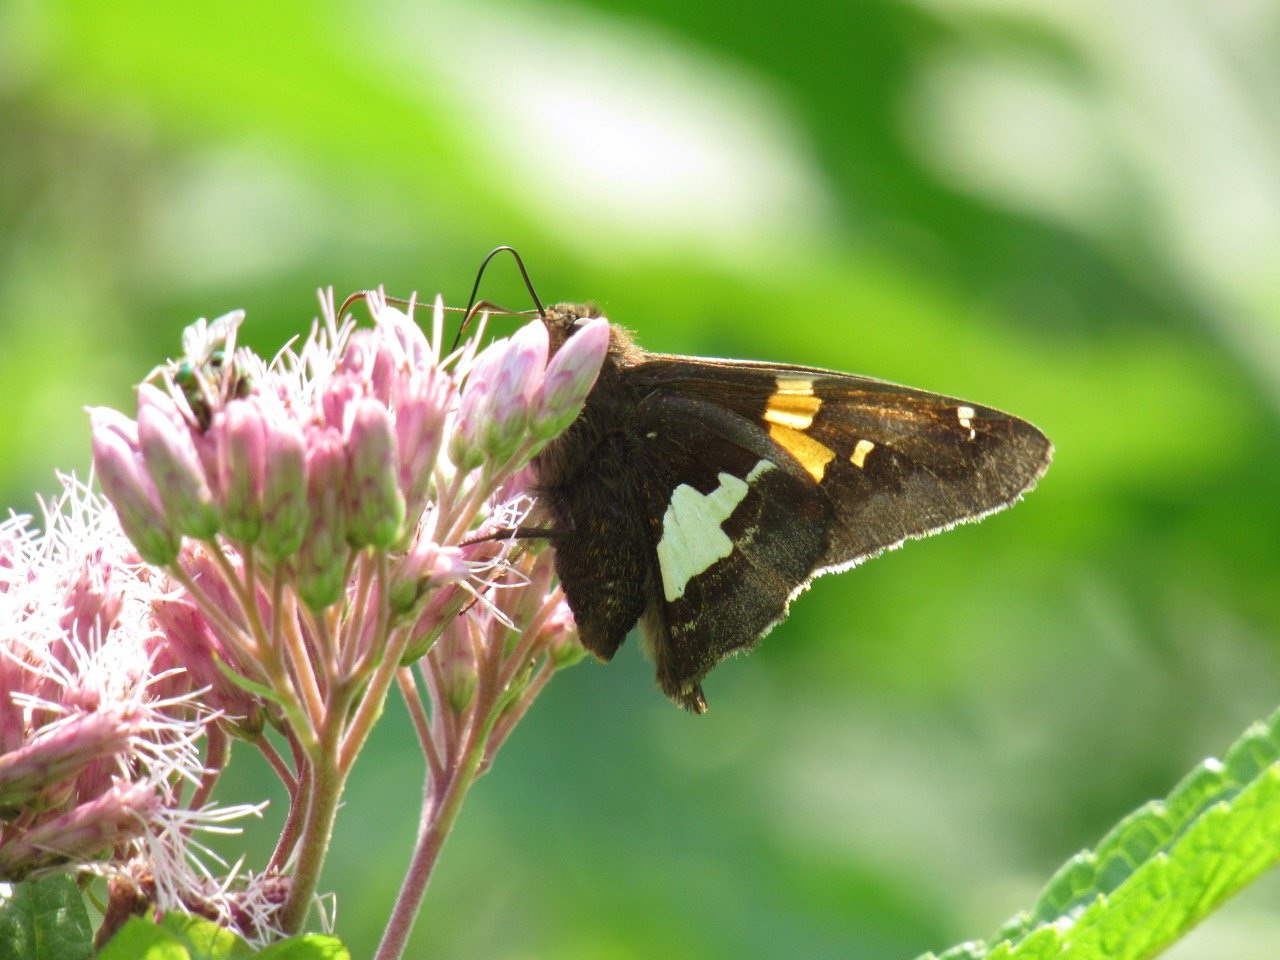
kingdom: Animalia
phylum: Arthropoda
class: Insecta
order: Lepidoptera
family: Hesperiidae
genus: Epargyreus
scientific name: Epargyreus clarus
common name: Silver-spotted Skipper
